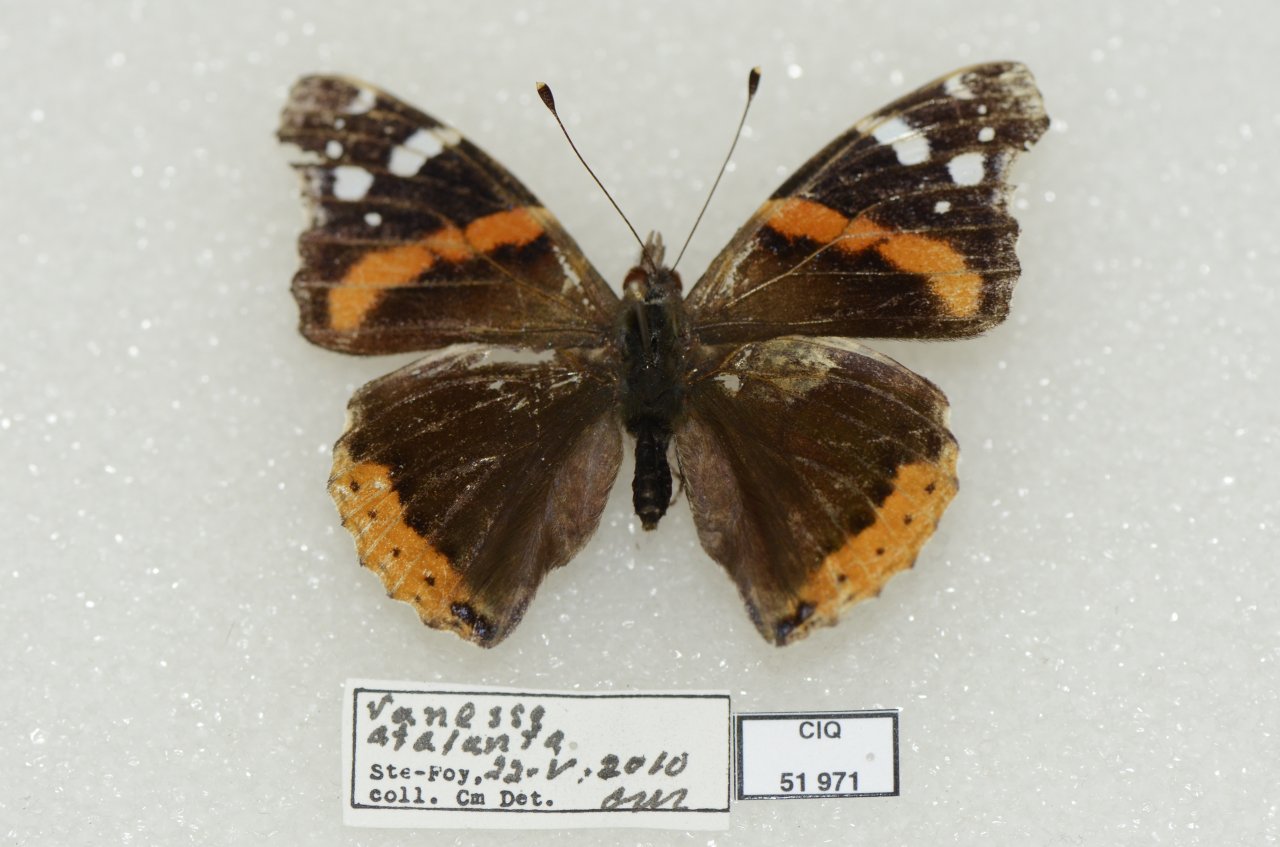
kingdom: Animalia
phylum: Arthropoda
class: Insecta
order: Lepidoptera
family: Nymphalidae
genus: Vanessa
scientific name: Vanessa atalanta
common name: Red Admiral
